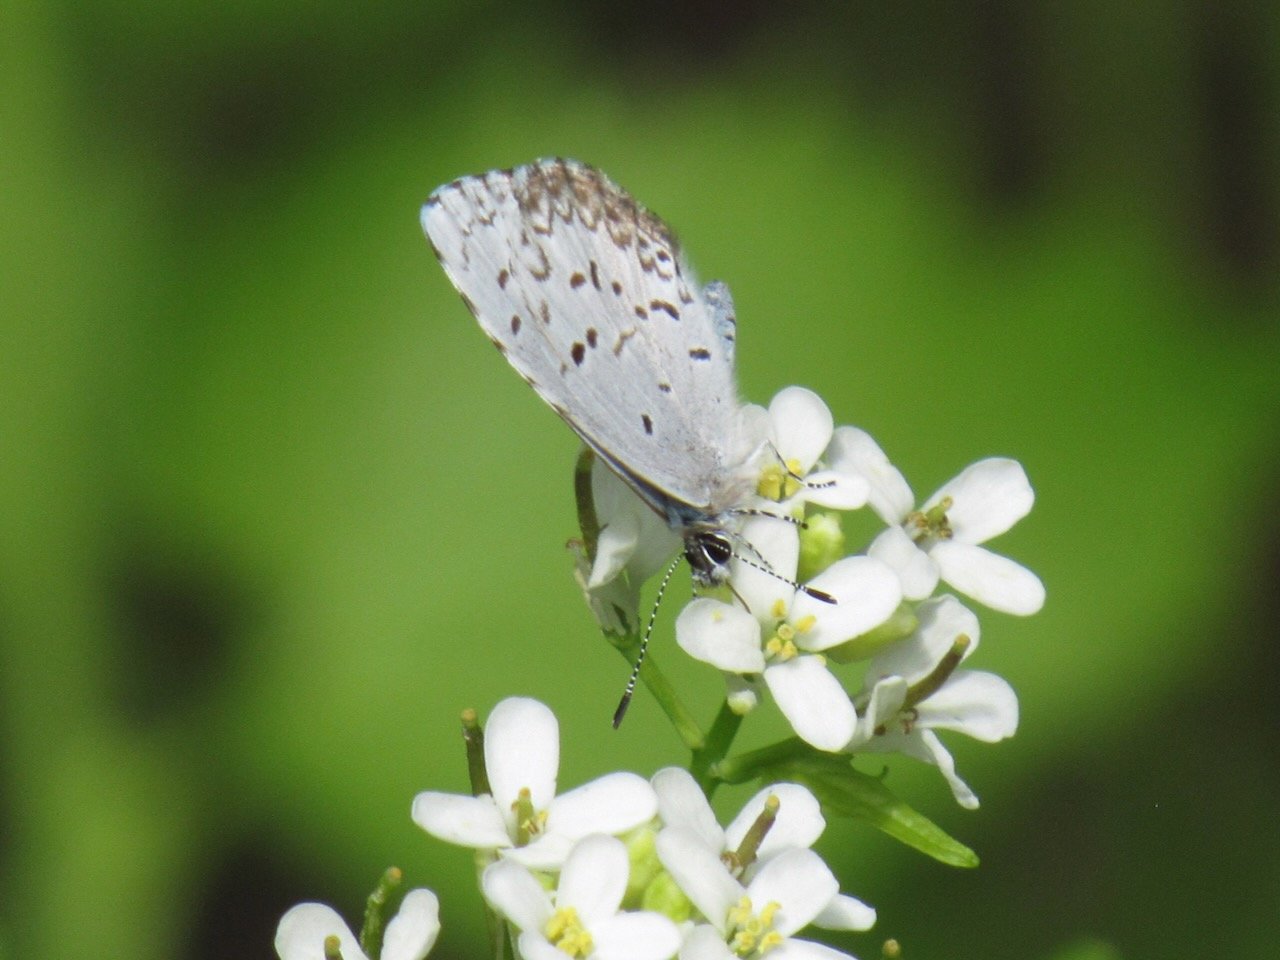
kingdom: Animalia
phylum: Arthropoda
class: Insecta
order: Lepidoptera
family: Lycaenidae
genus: Celastrina
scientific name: Celastrina lucia
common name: Northern Spring Azure
